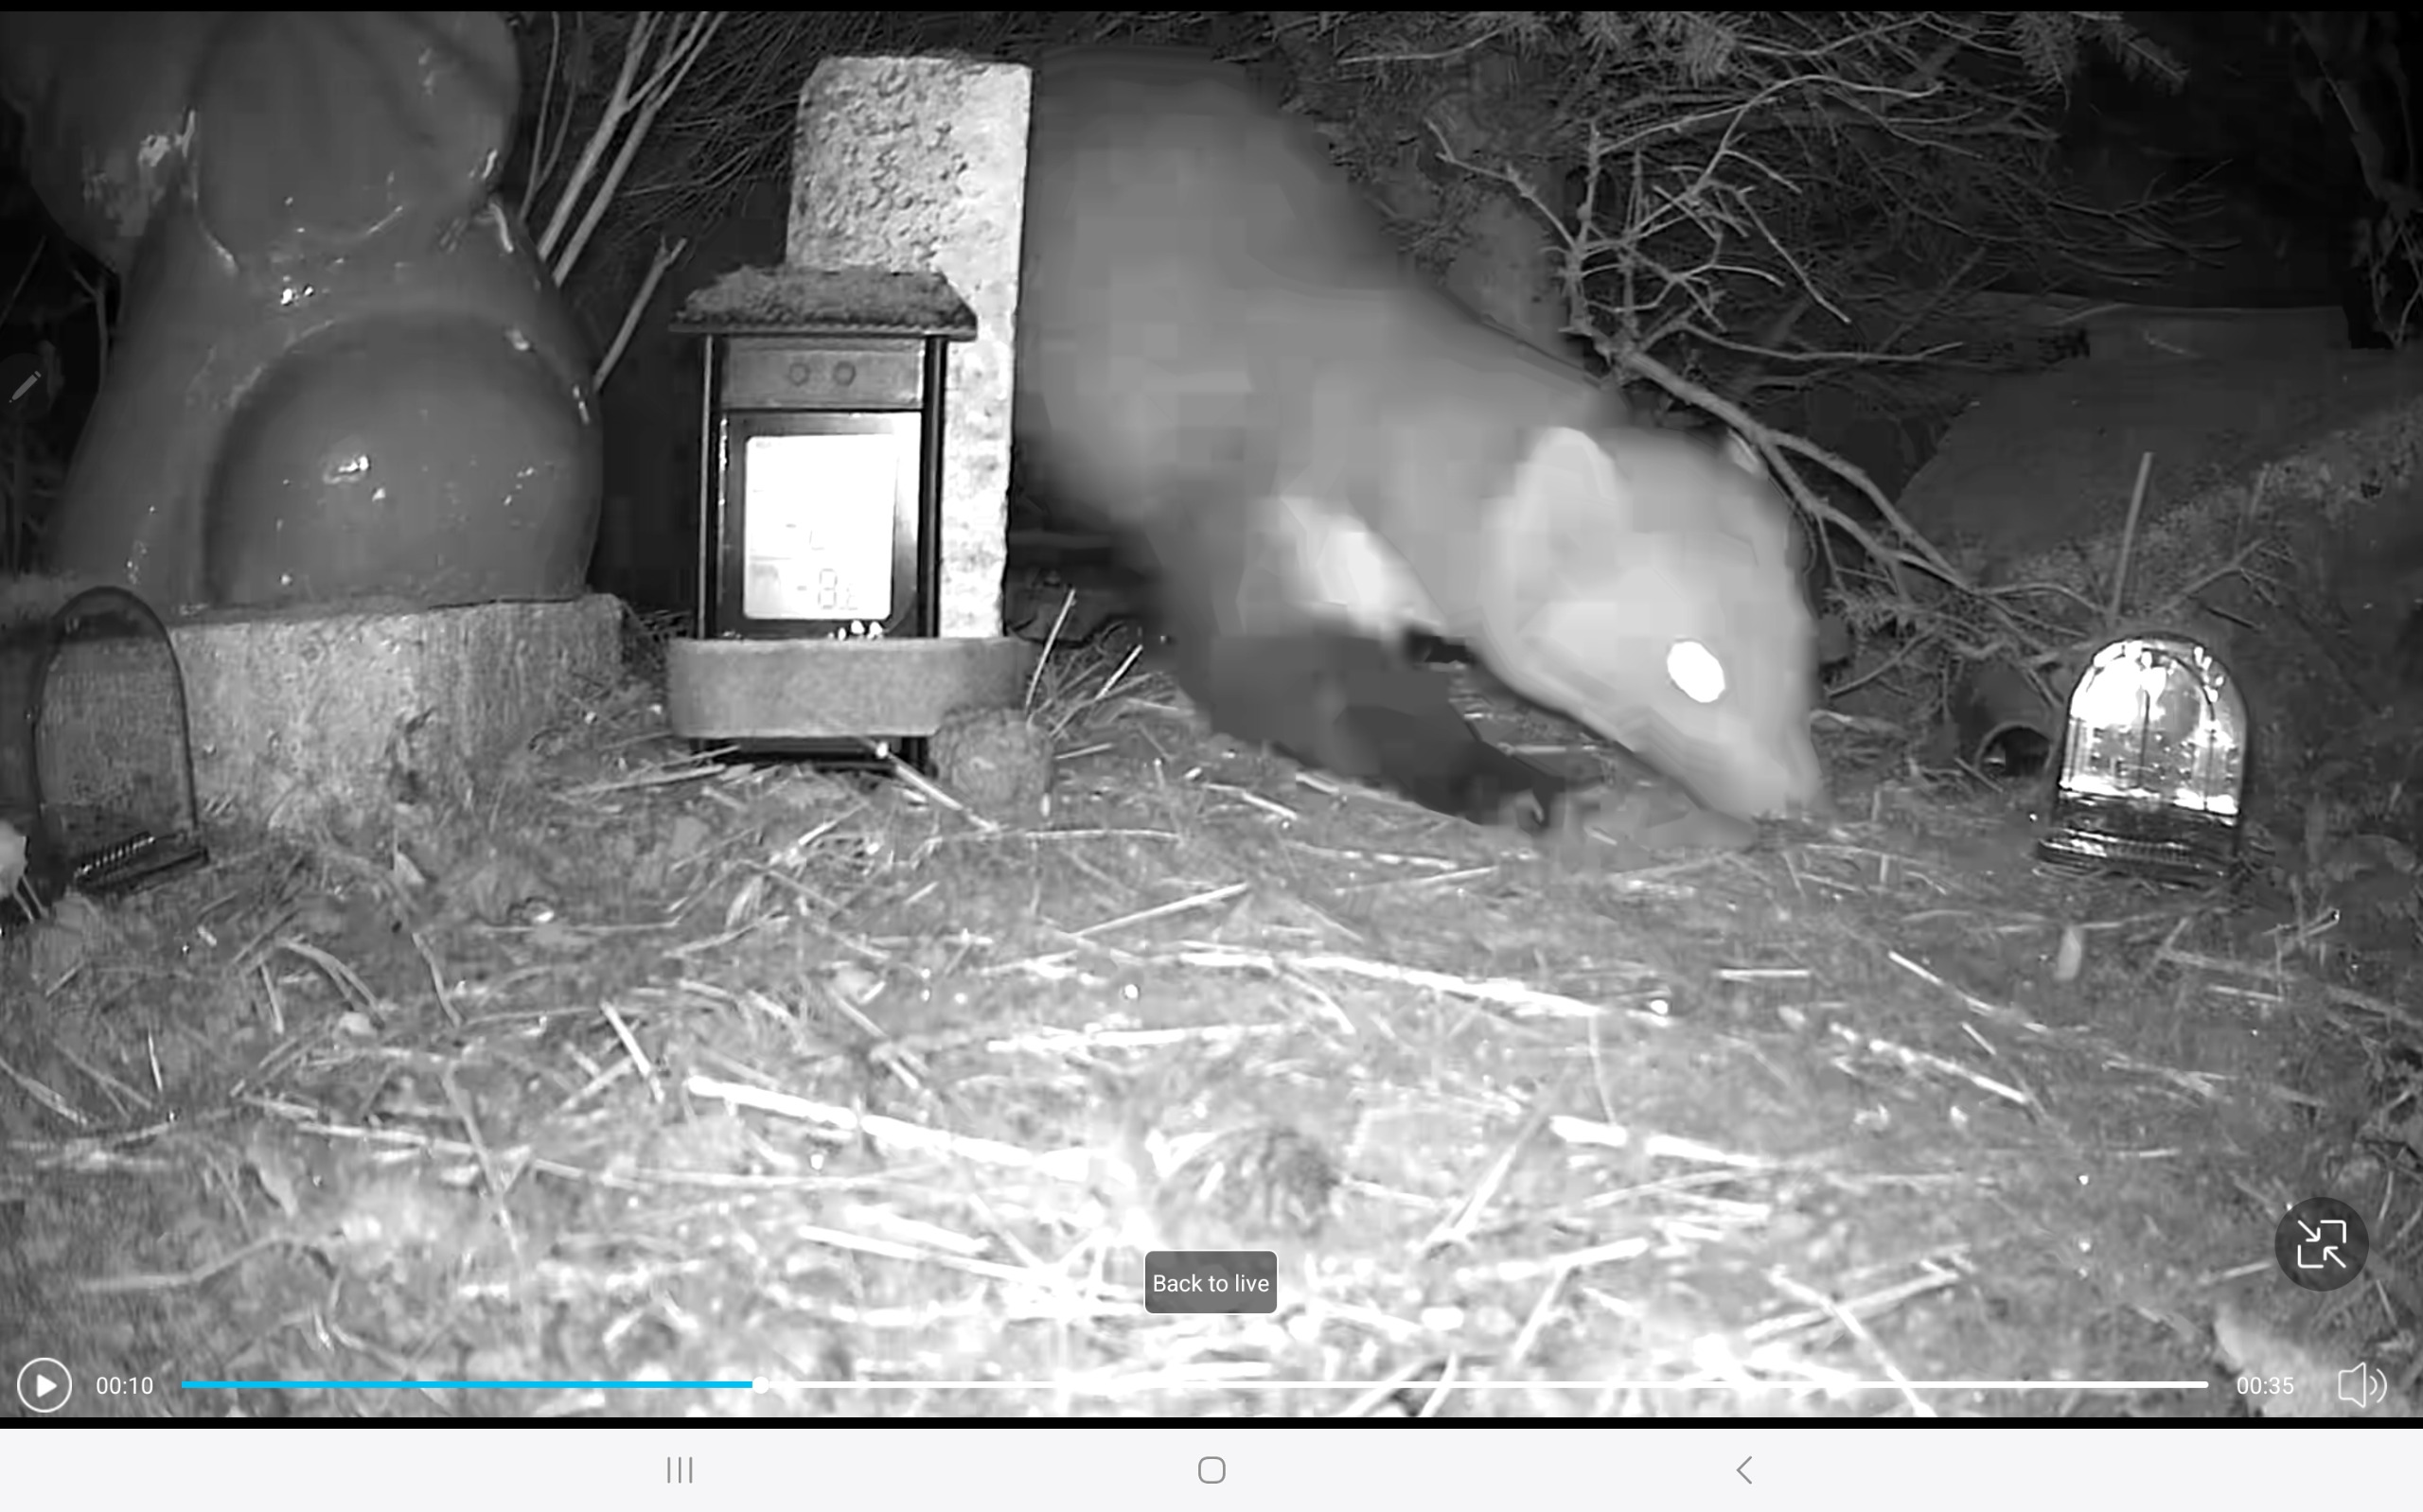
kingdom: Animalia
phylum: Chordata
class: Mammalia
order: Carnivora
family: Mustelidae
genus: Martes
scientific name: Martes foina
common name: Husmår
